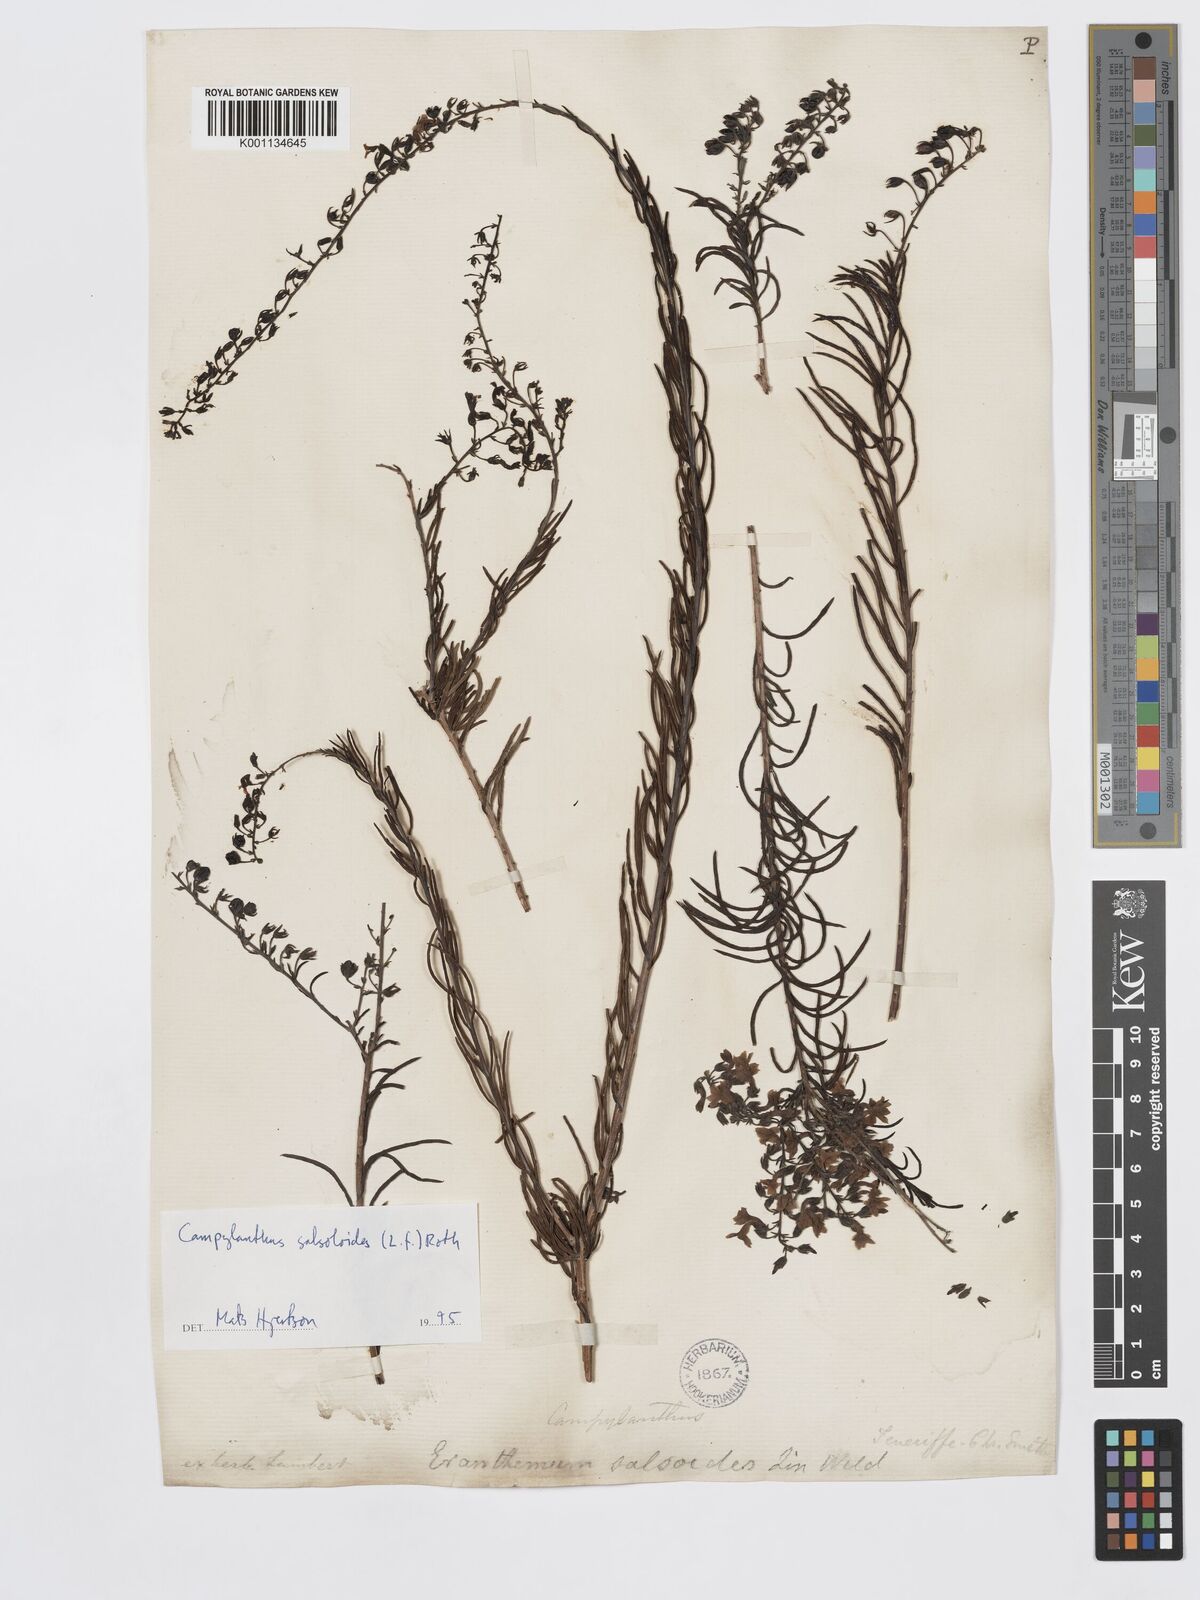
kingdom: Plantae
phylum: Tracheophyta
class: Magnoliopsida
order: Lamiales
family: Plantaginaceae
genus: Campylanthus
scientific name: Campylanthus
